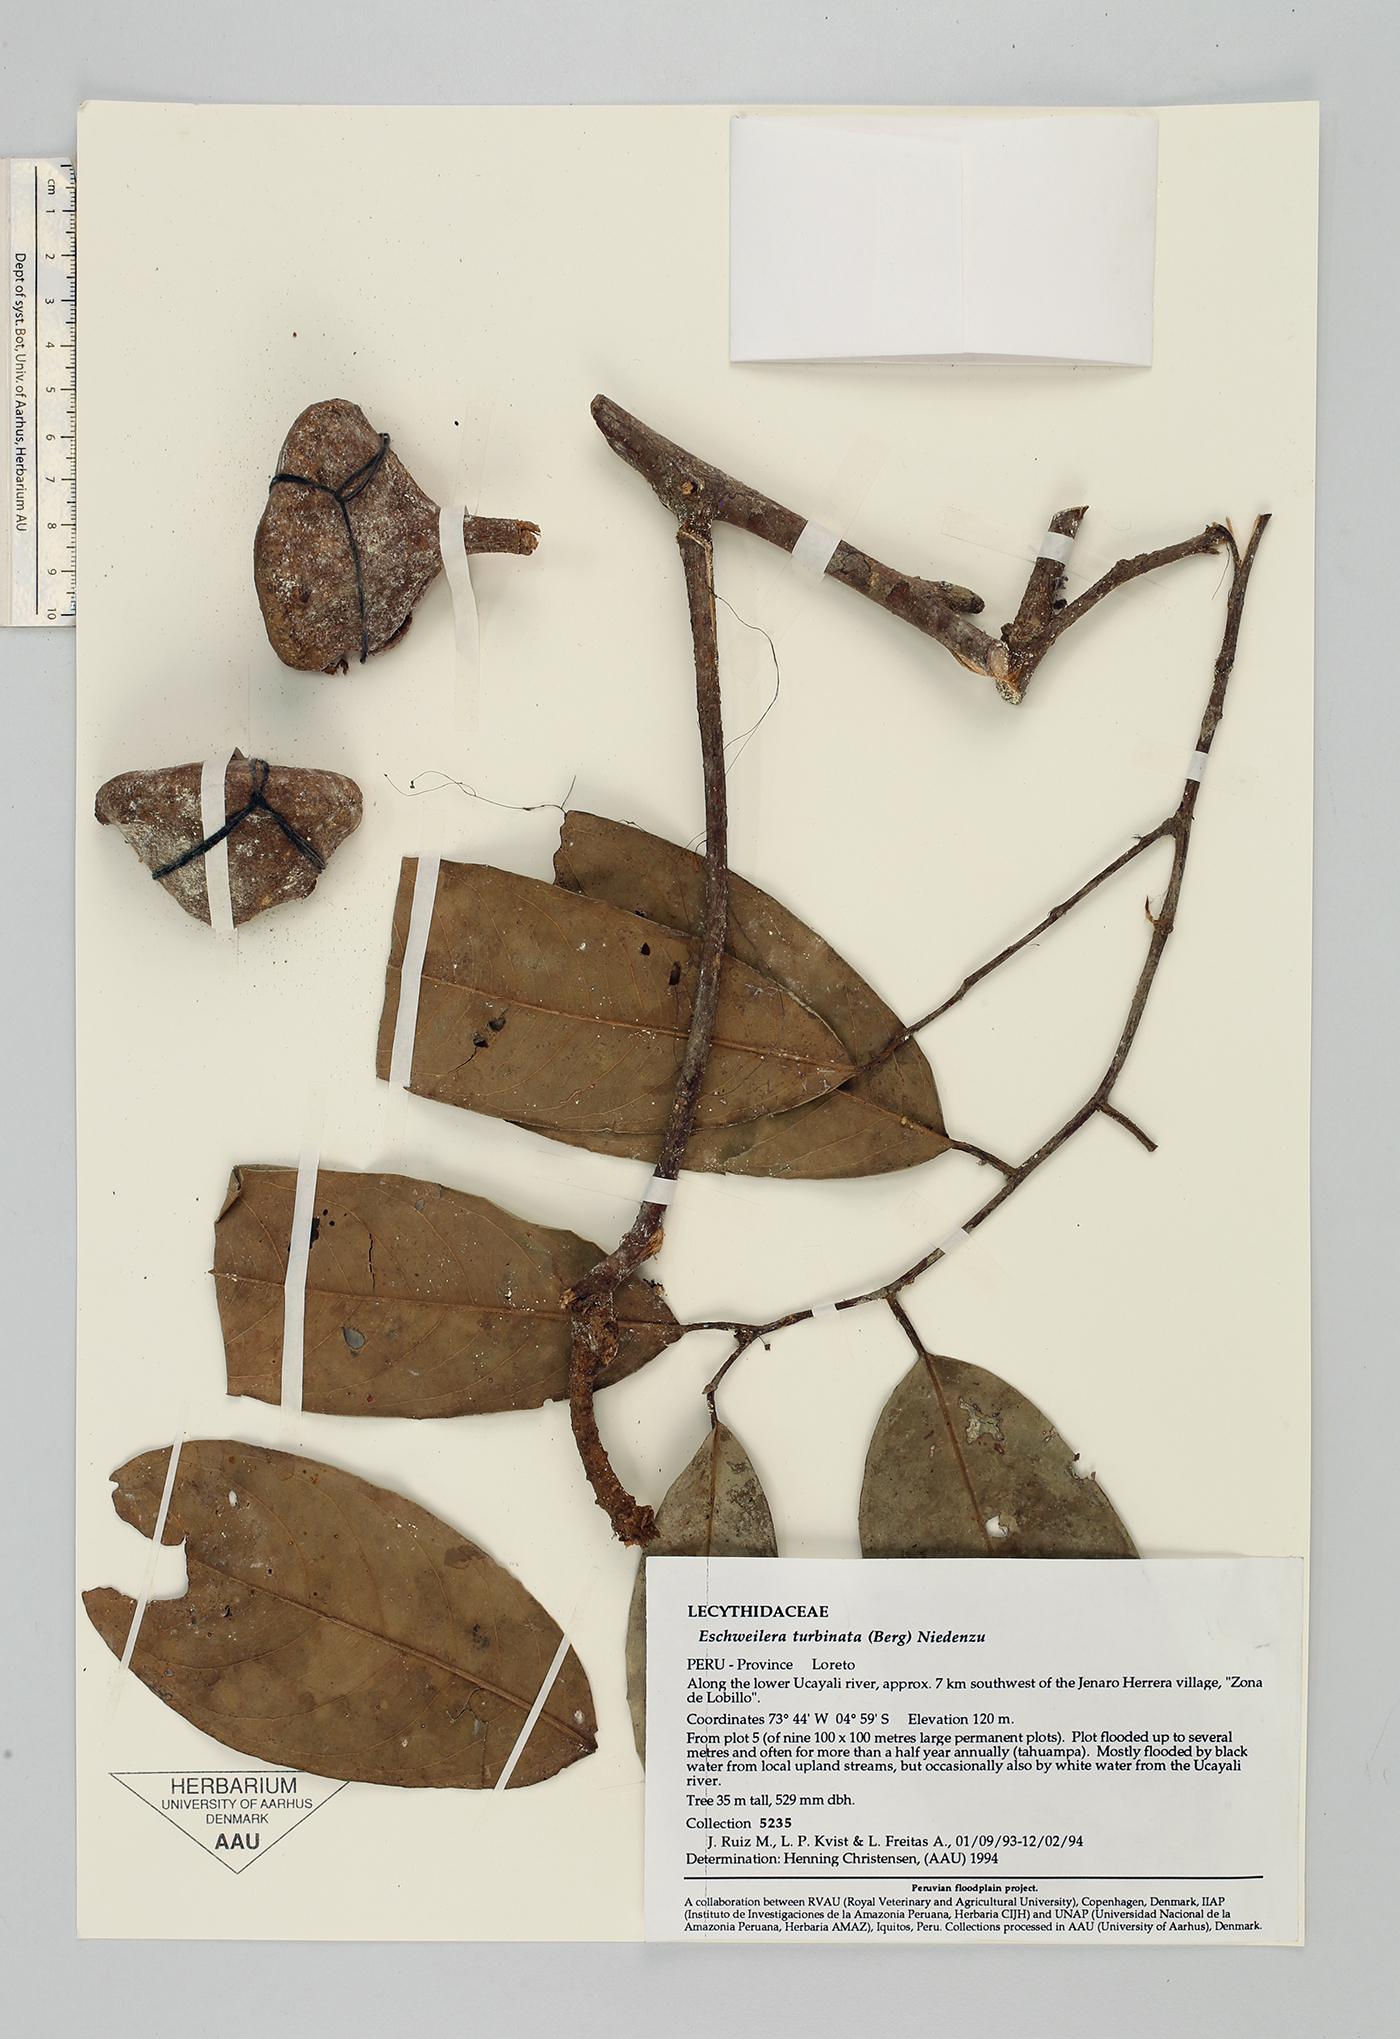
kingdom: Plantae
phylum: Tracheophyta
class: Magnoliopsida
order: Ericales
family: Lecythidaceae
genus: Eschweilera
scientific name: Eschweilera albiflora
